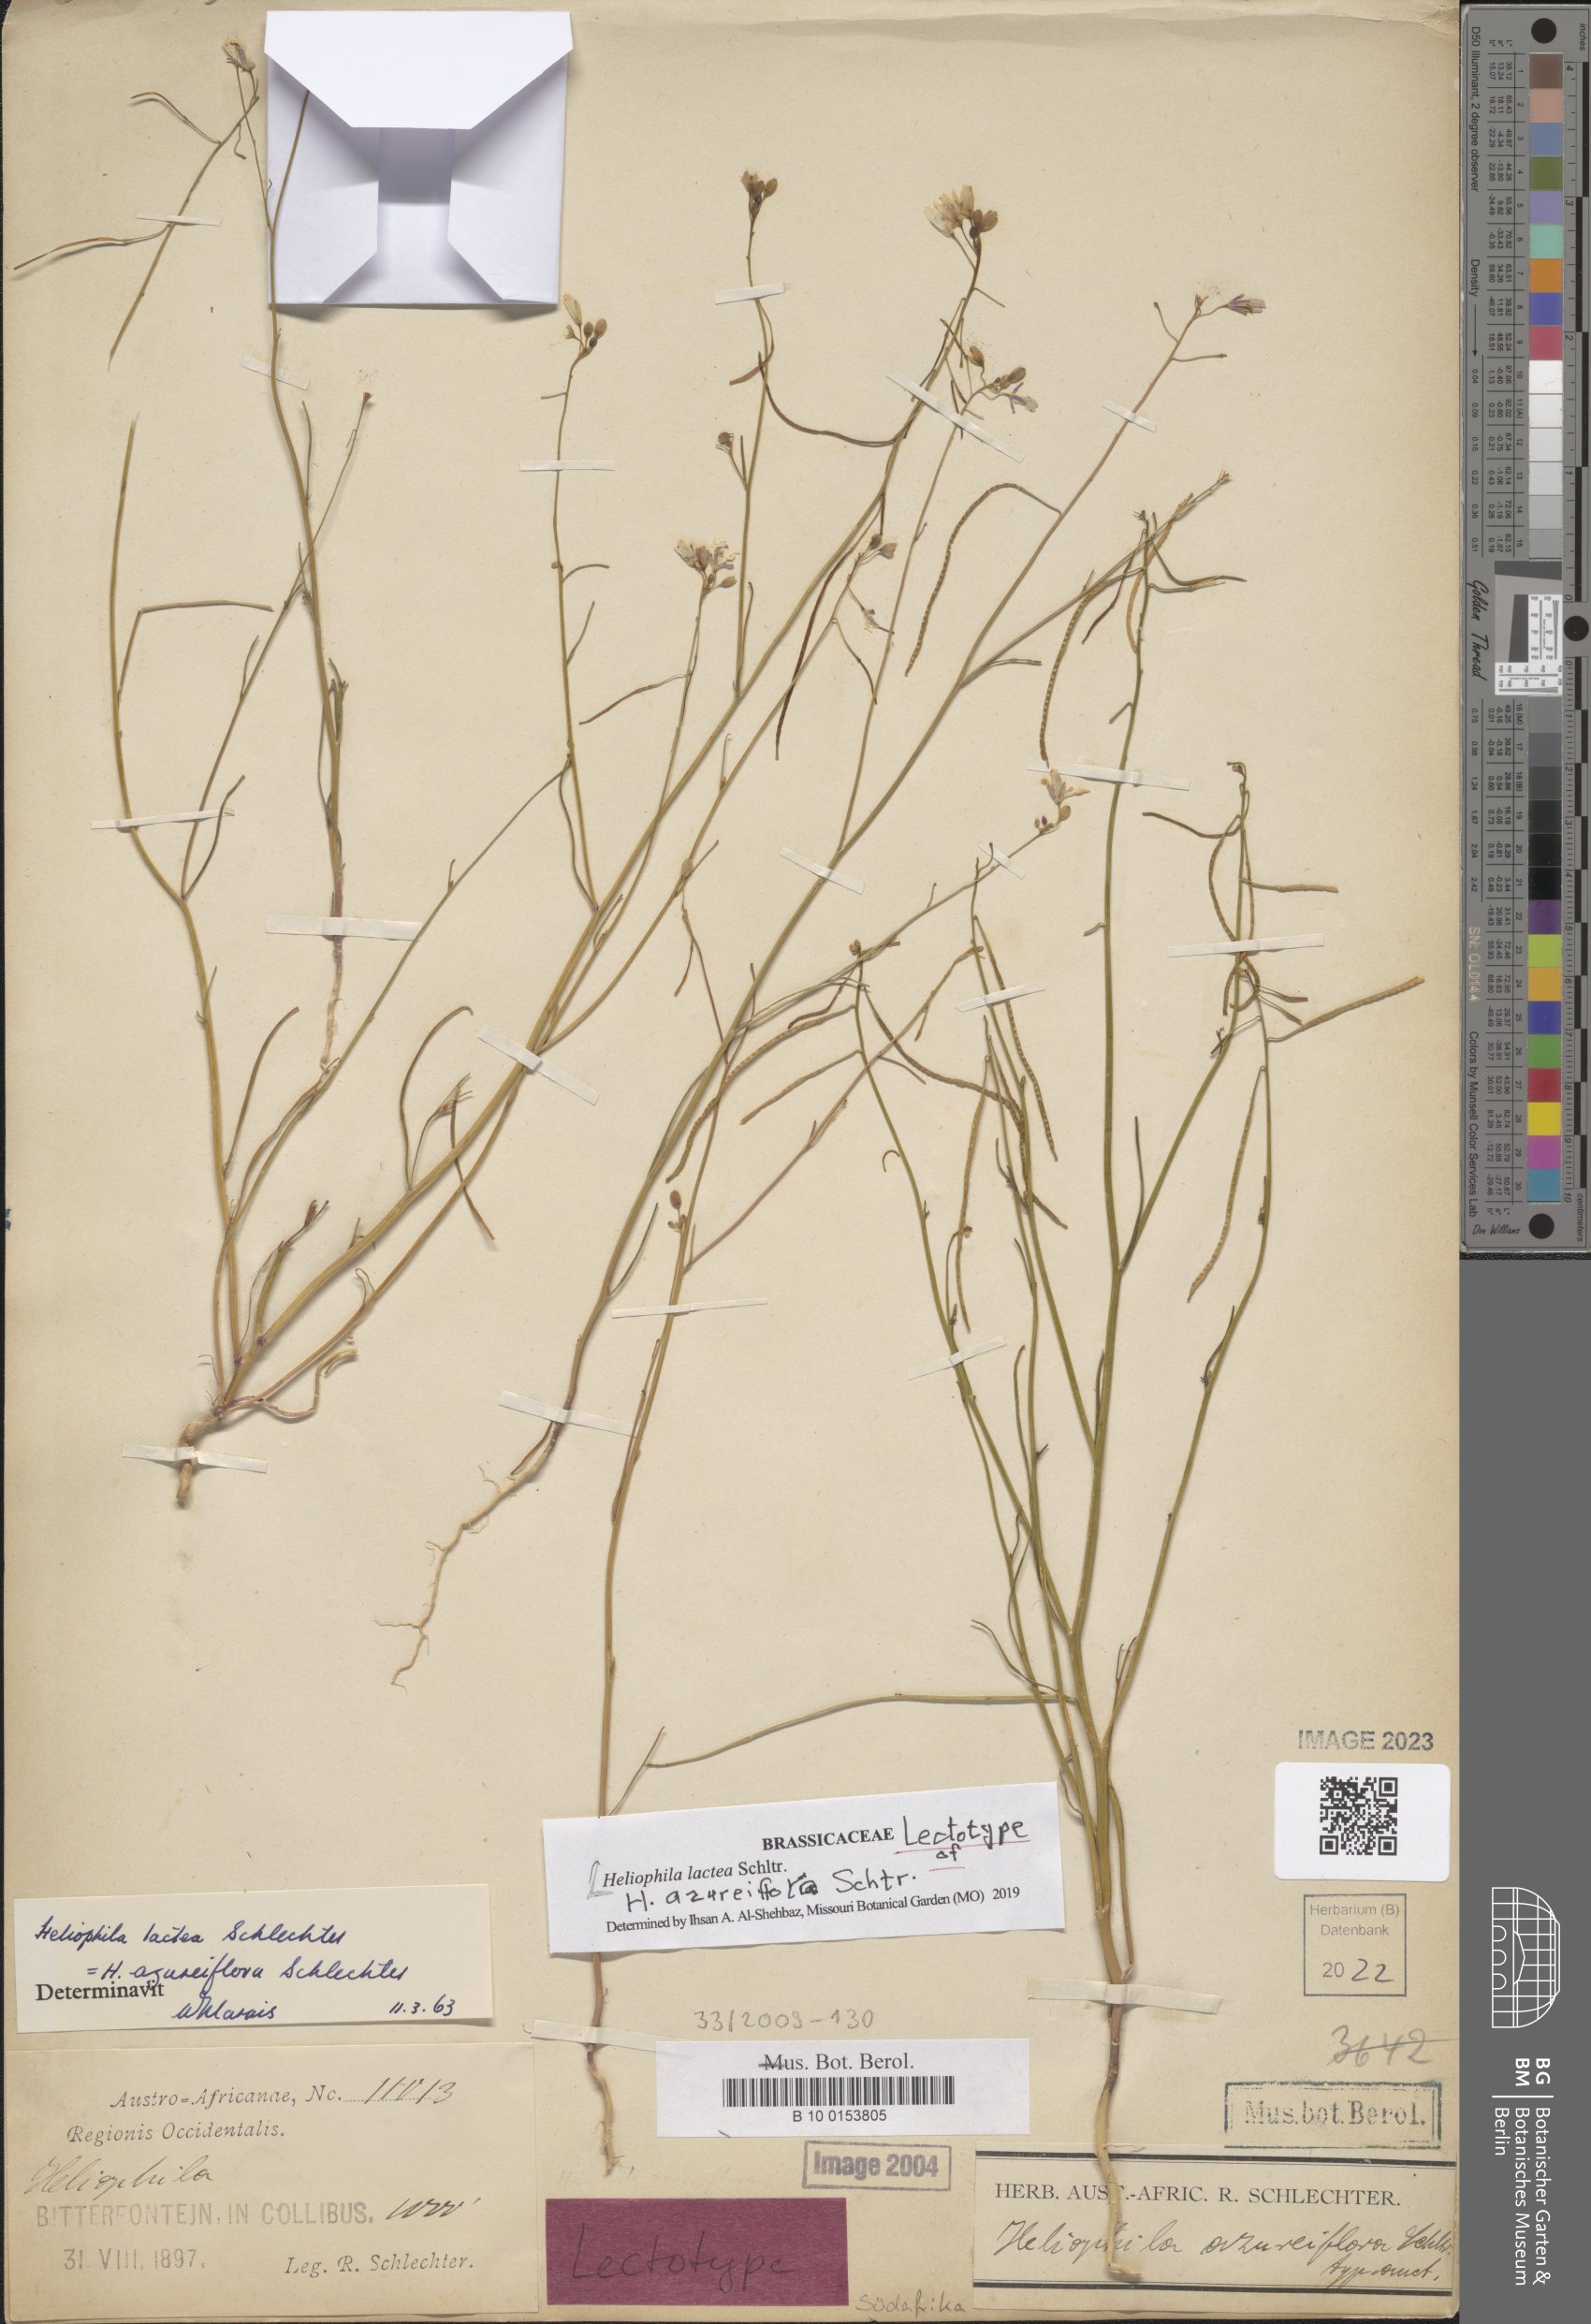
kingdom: Plantae
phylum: Tracheophyta
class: Magnoliopsida
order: Brassicales
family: Brassicaceae
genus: Heliophila
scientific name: Heliophila lactea
